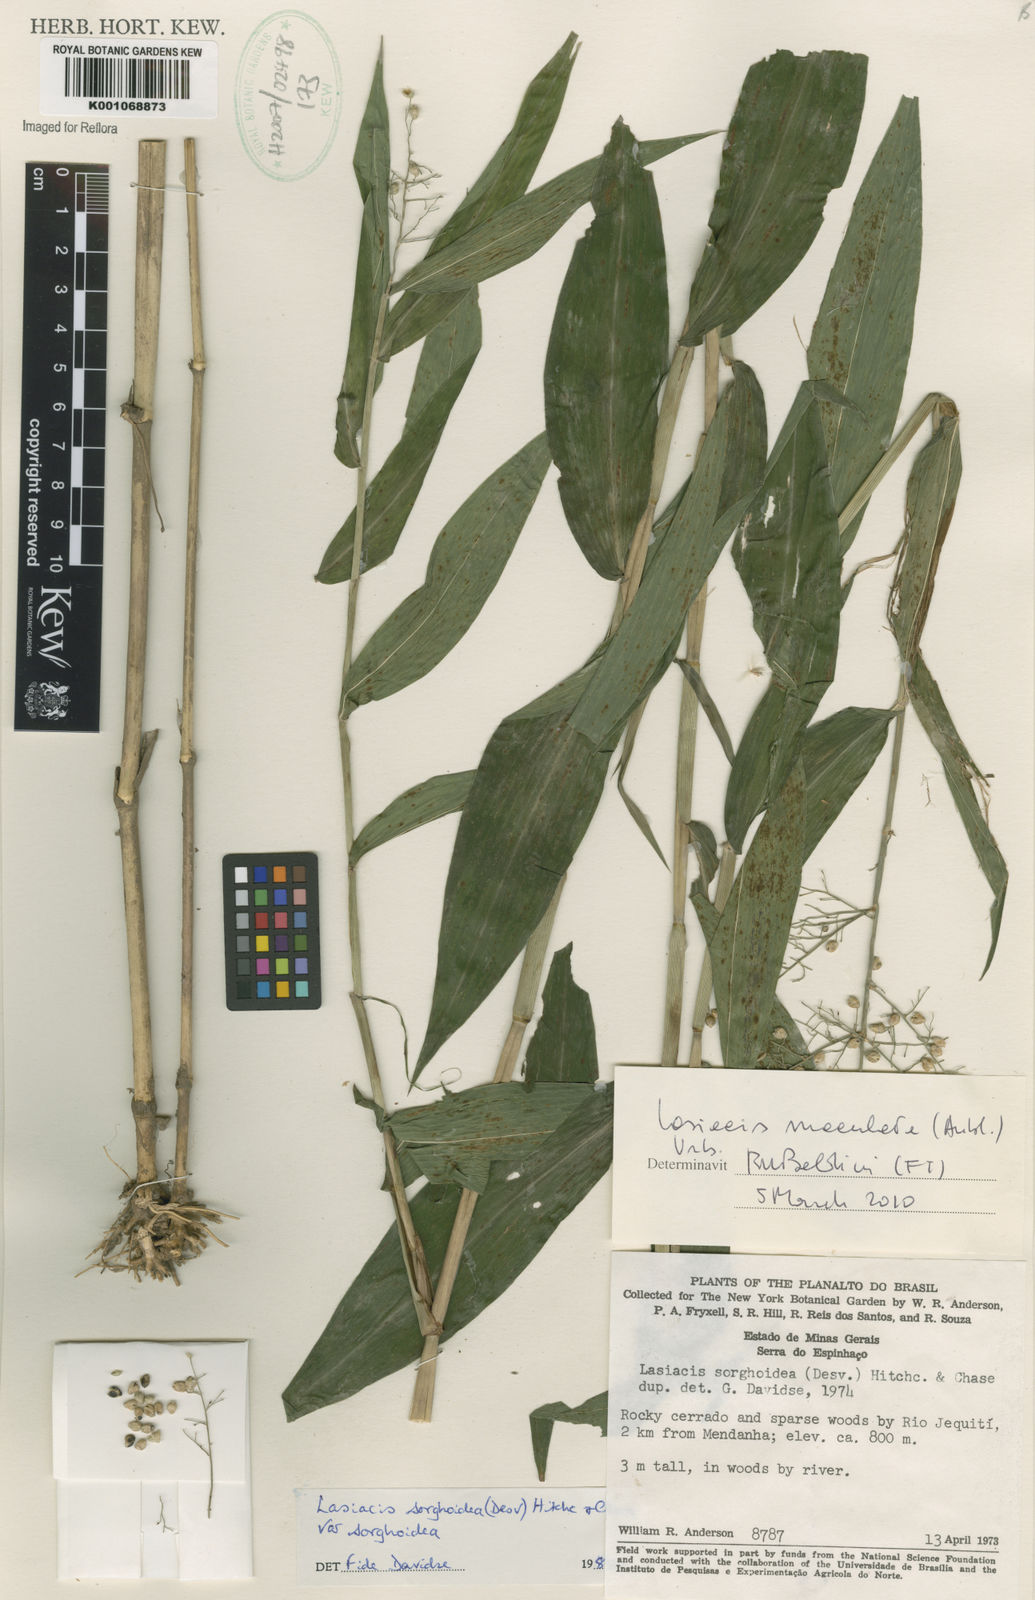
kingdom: Plantae
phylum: Tracheophyta
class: Liliopsida
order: Poales
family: Poaceae
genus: Lasiacis
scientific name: Lasiacis maculata
